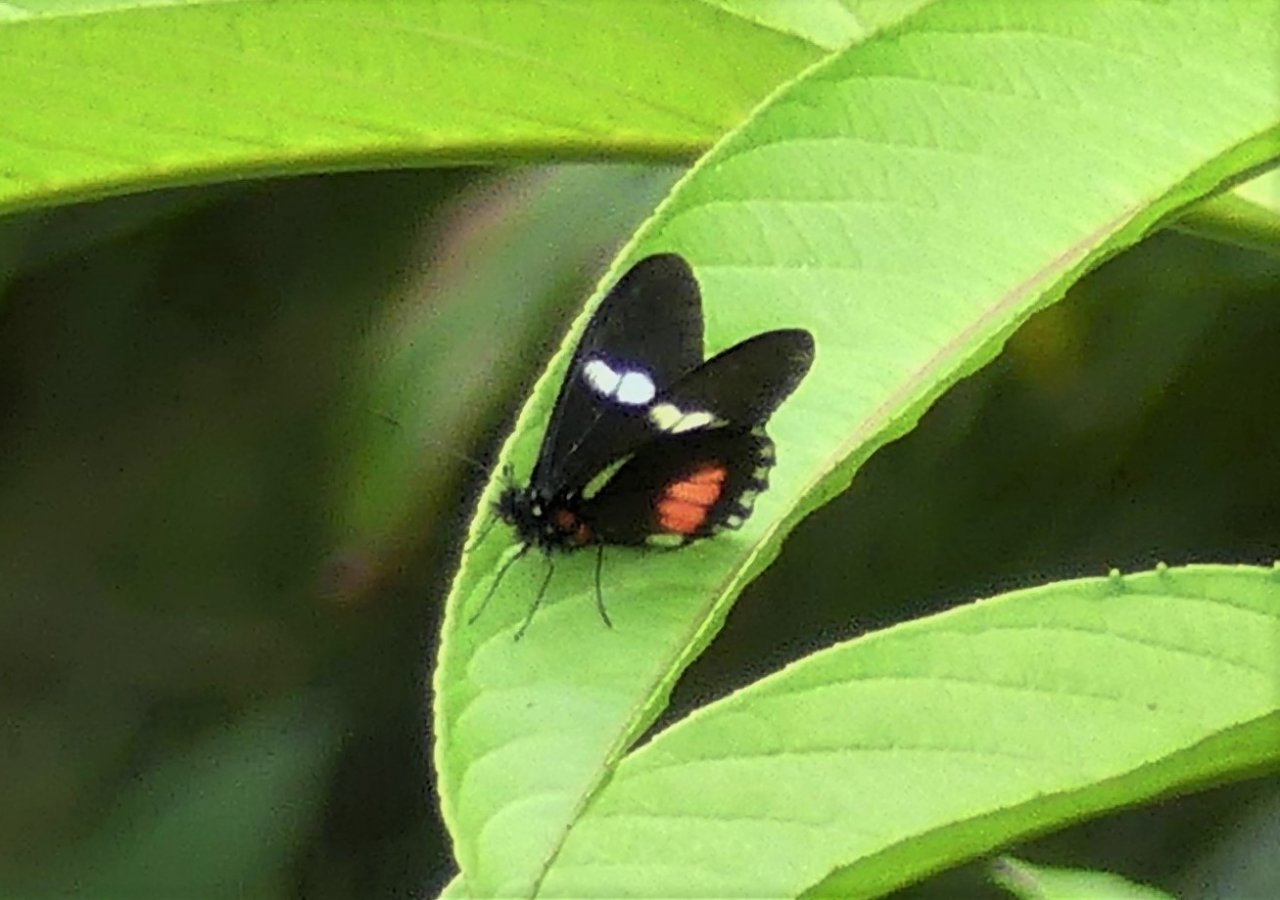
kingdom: Animalia
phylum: Arthropoda
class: Insecta
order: Lepidoptera
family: Pieridae
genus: Archonias
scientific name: Archonias brassolis
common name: Cattleheart White
